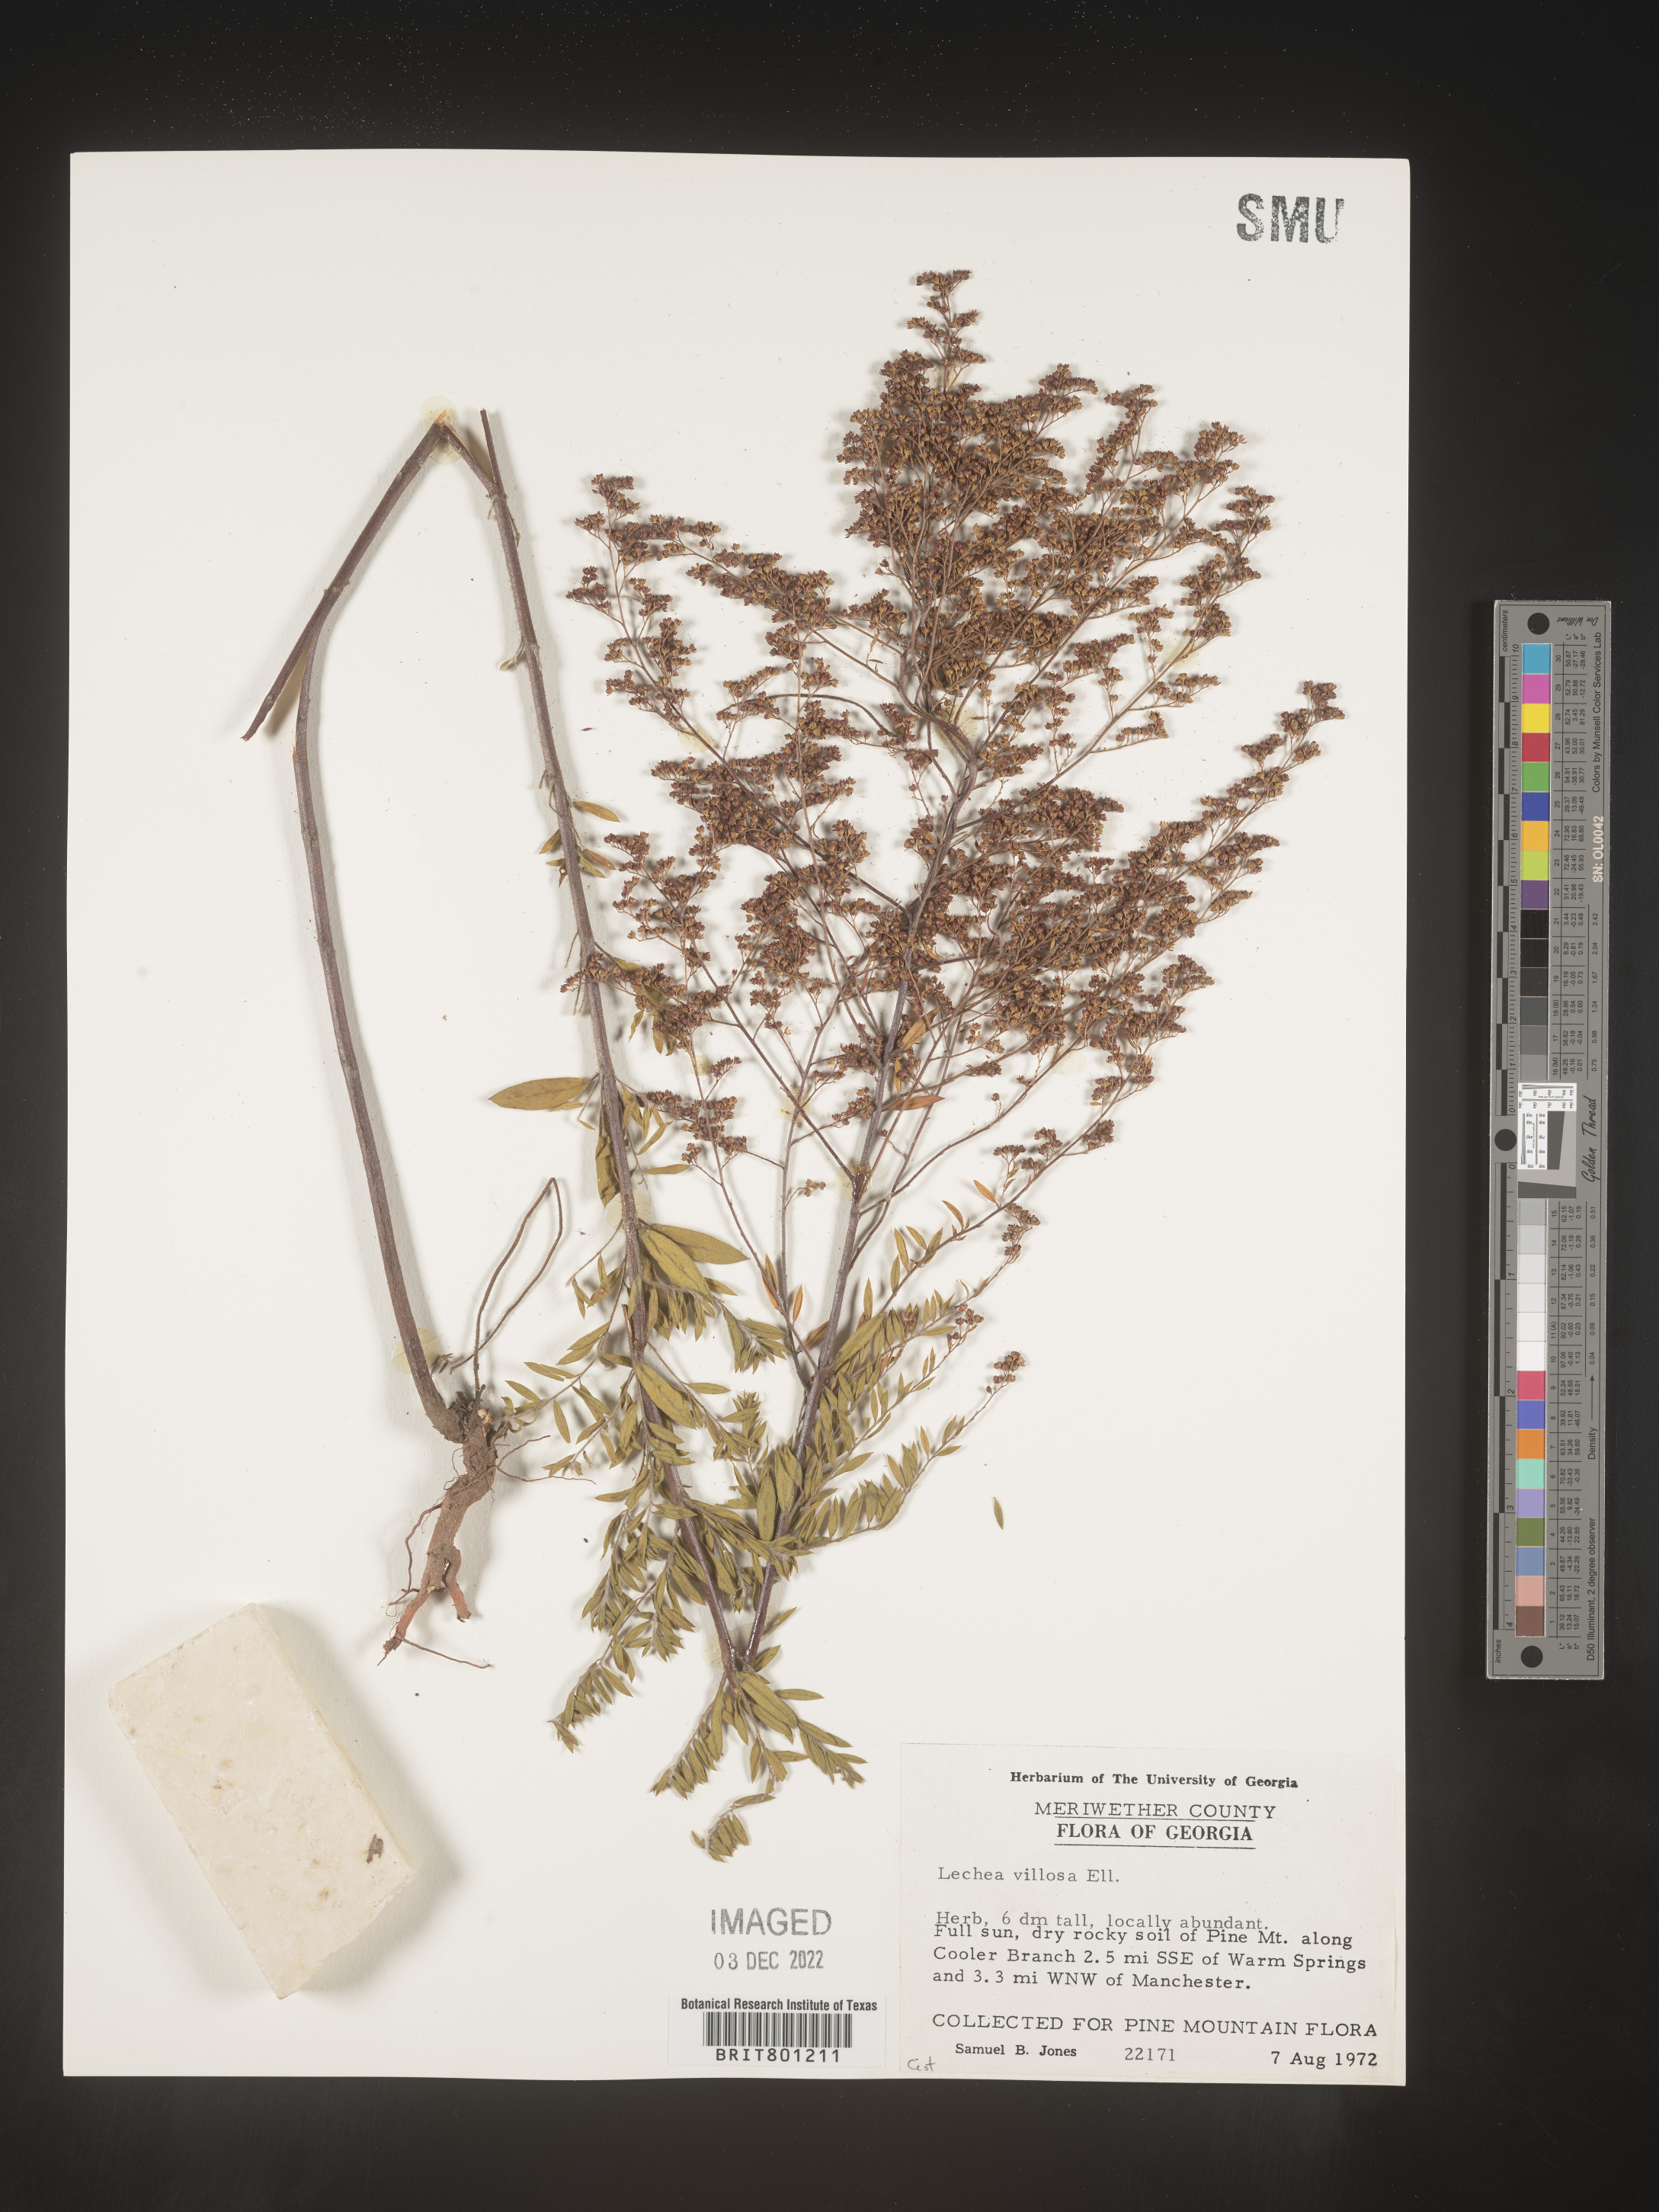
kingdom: Plantae
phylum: Tracheophyta
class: Magnoliopsida
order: Malvales
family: Cistaceae
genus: Lechea
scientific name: Lechea mucronata
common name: Hairy pinweed
